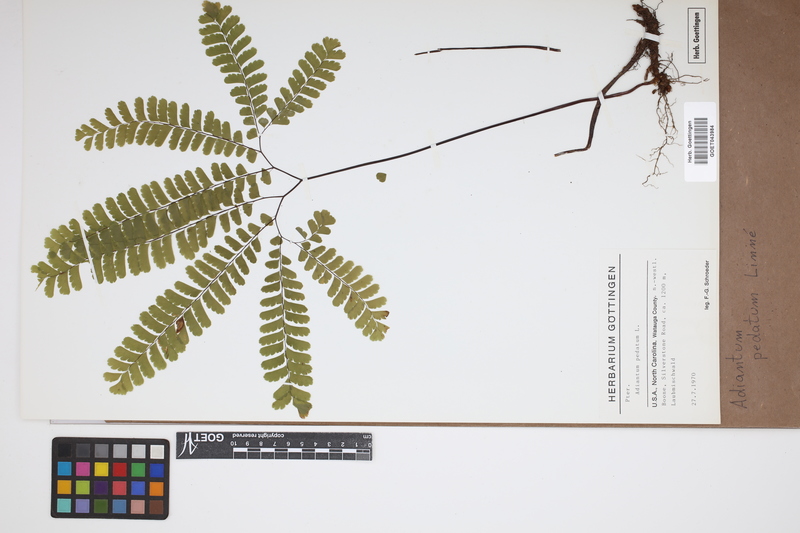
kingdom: Plantae
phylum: Tracheophyta
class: Polypodiopsida
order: Polypodiales
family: Pteridaceae
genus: Adiantum
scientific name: Adiantum pedatum
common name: Five-finger fern
